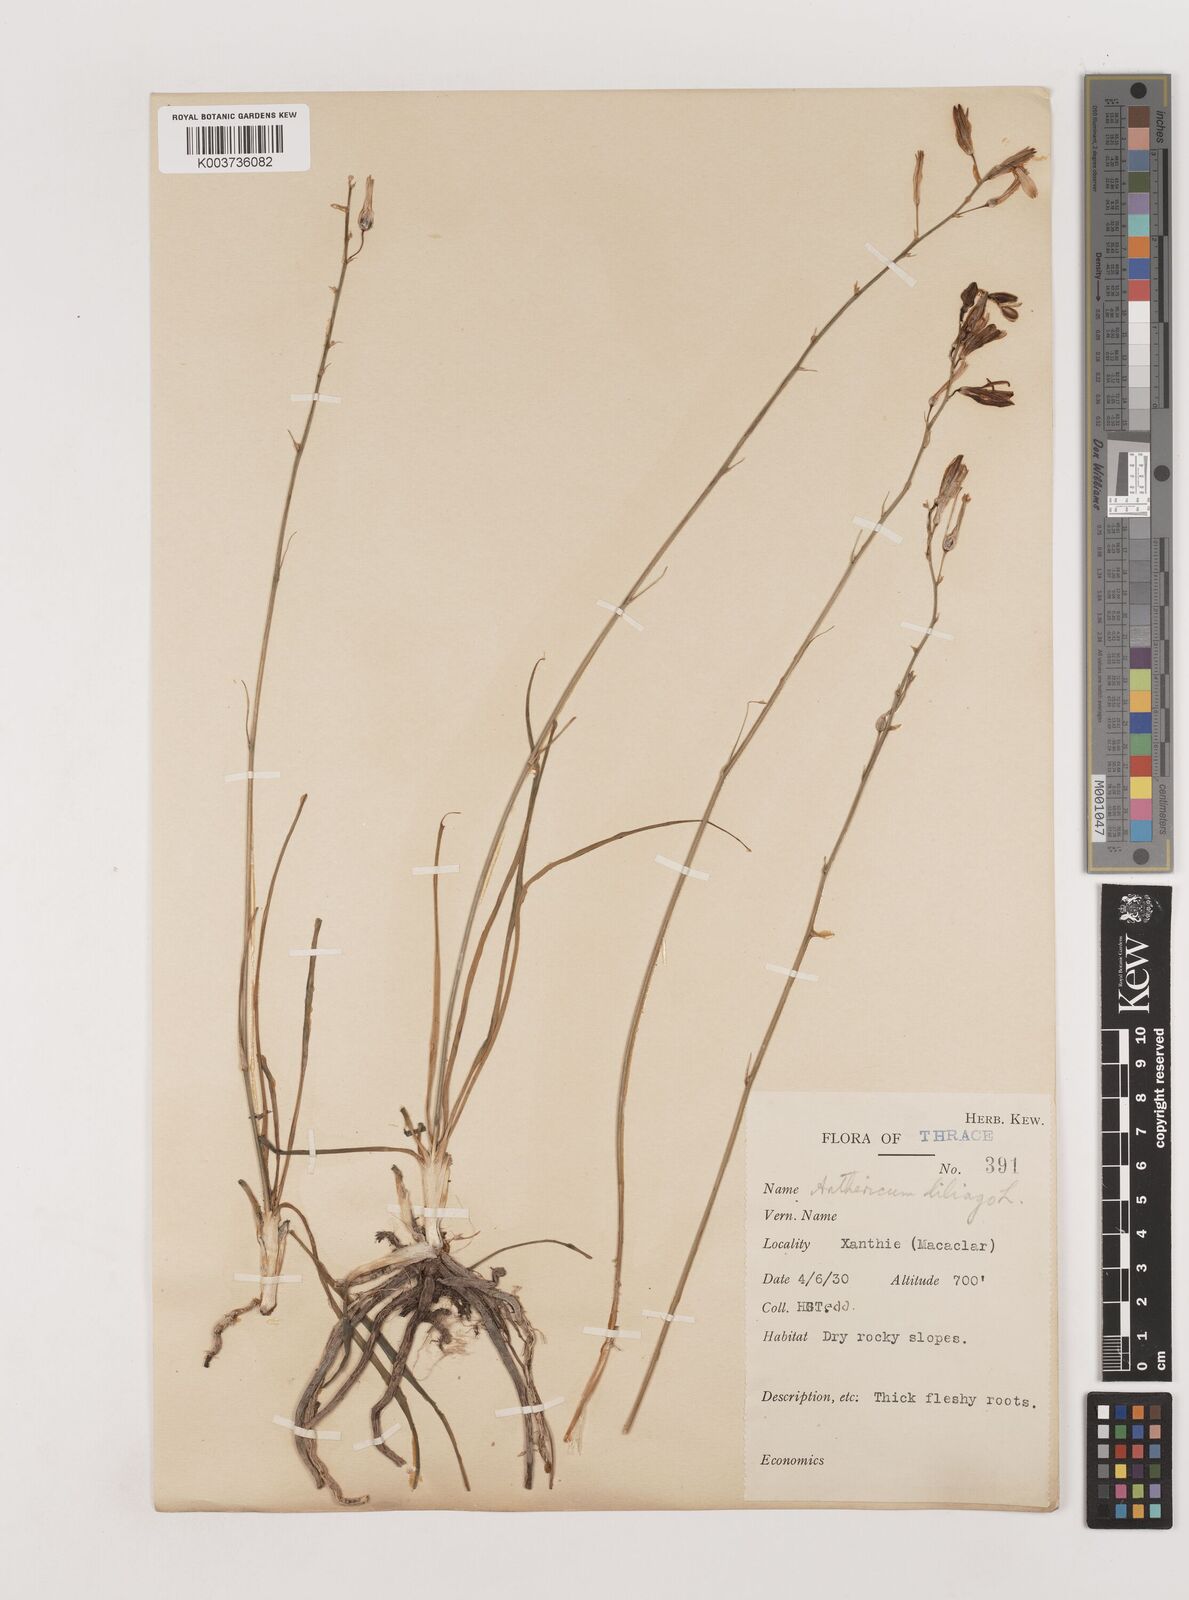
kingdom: Plantae
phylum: Tracheophyta
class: Liliopsida
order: Asparagales
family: Asparagaceae
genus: Anthericum
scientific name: Anthericum liliago
